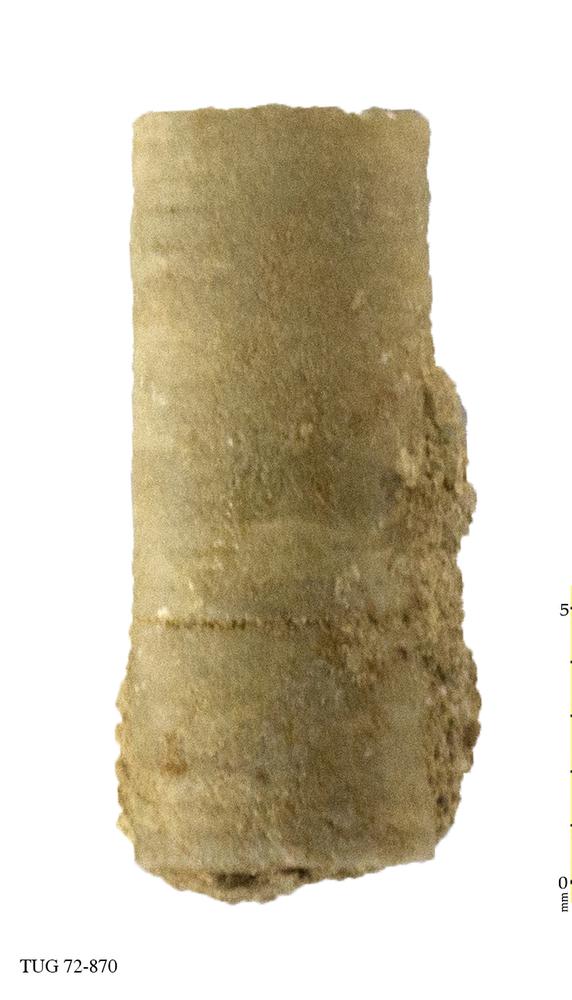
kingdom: Animalia
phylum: Echinodermata
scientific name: Echinodermata
